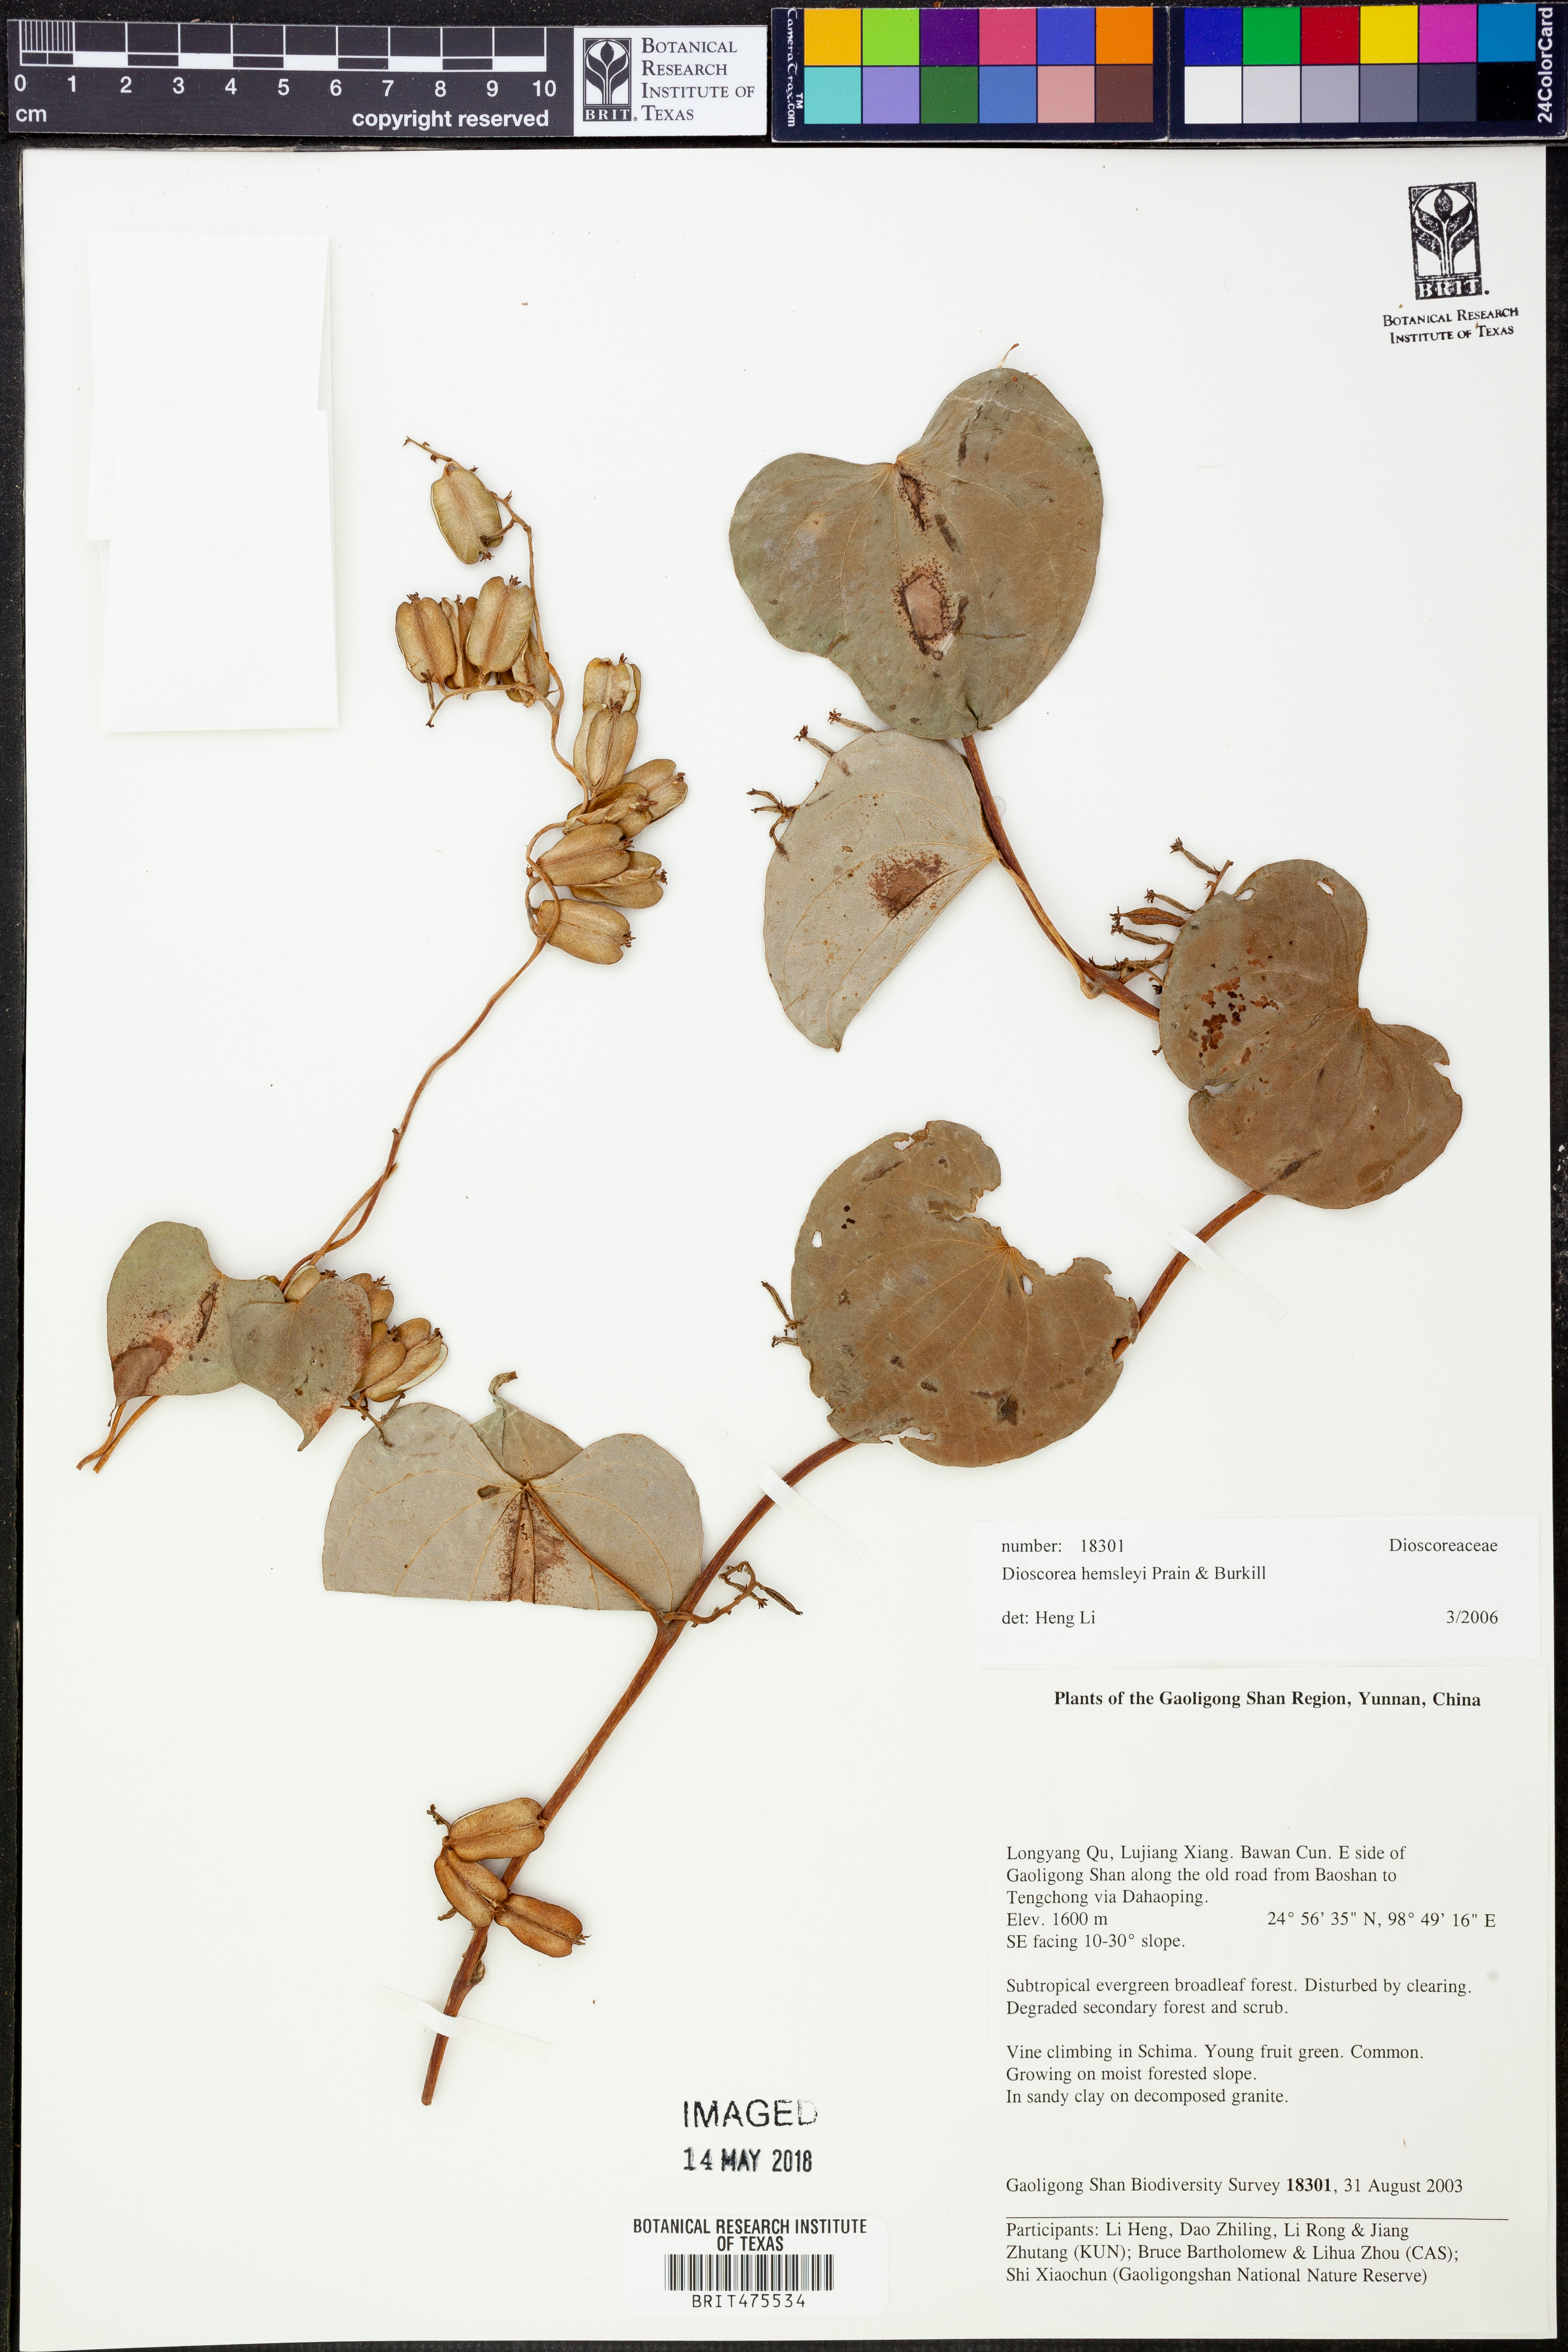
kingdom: Plantae
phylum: Tracheophyta
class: Liliopsida
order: Dioscoreales
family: Dioscoreaceae
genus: Dioscorea
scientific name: Dioscorea hemsleyi
